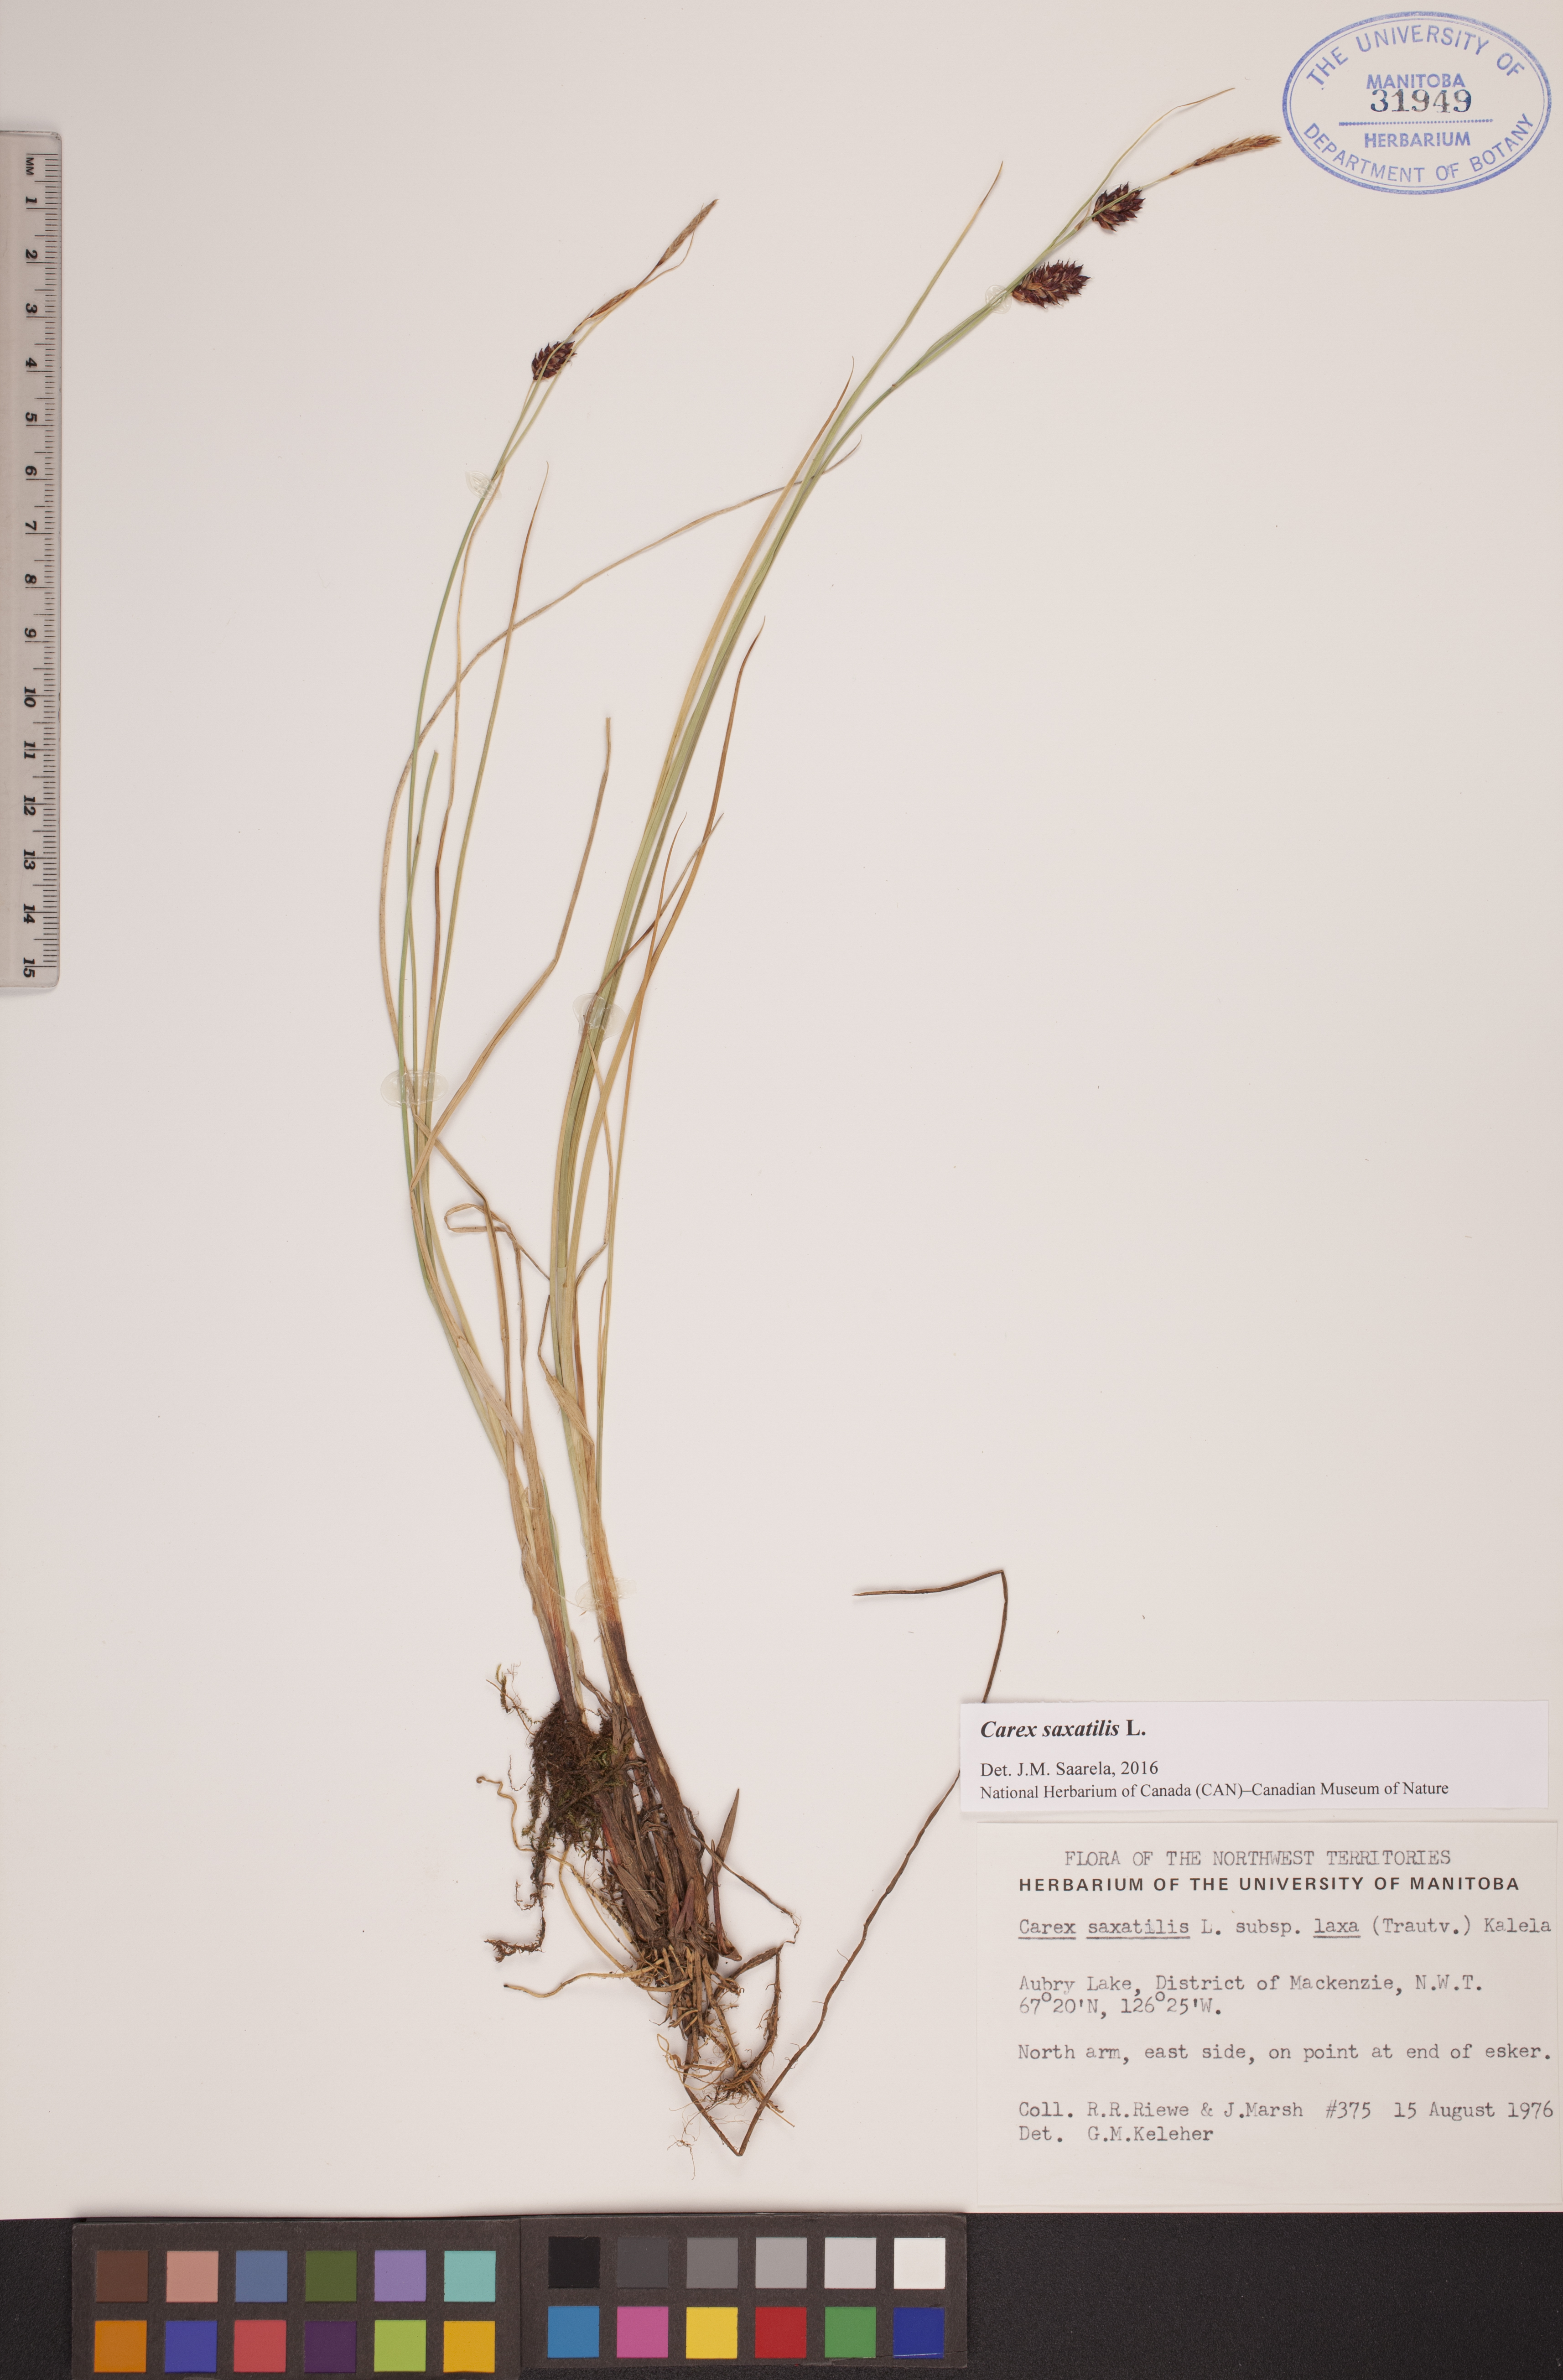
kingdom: Plantae
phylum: Tracheophyta
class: Liliopsida
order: Poales
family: Cyperaceae
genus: Carex
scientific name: Carex saxatilis
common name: Russet sedge
